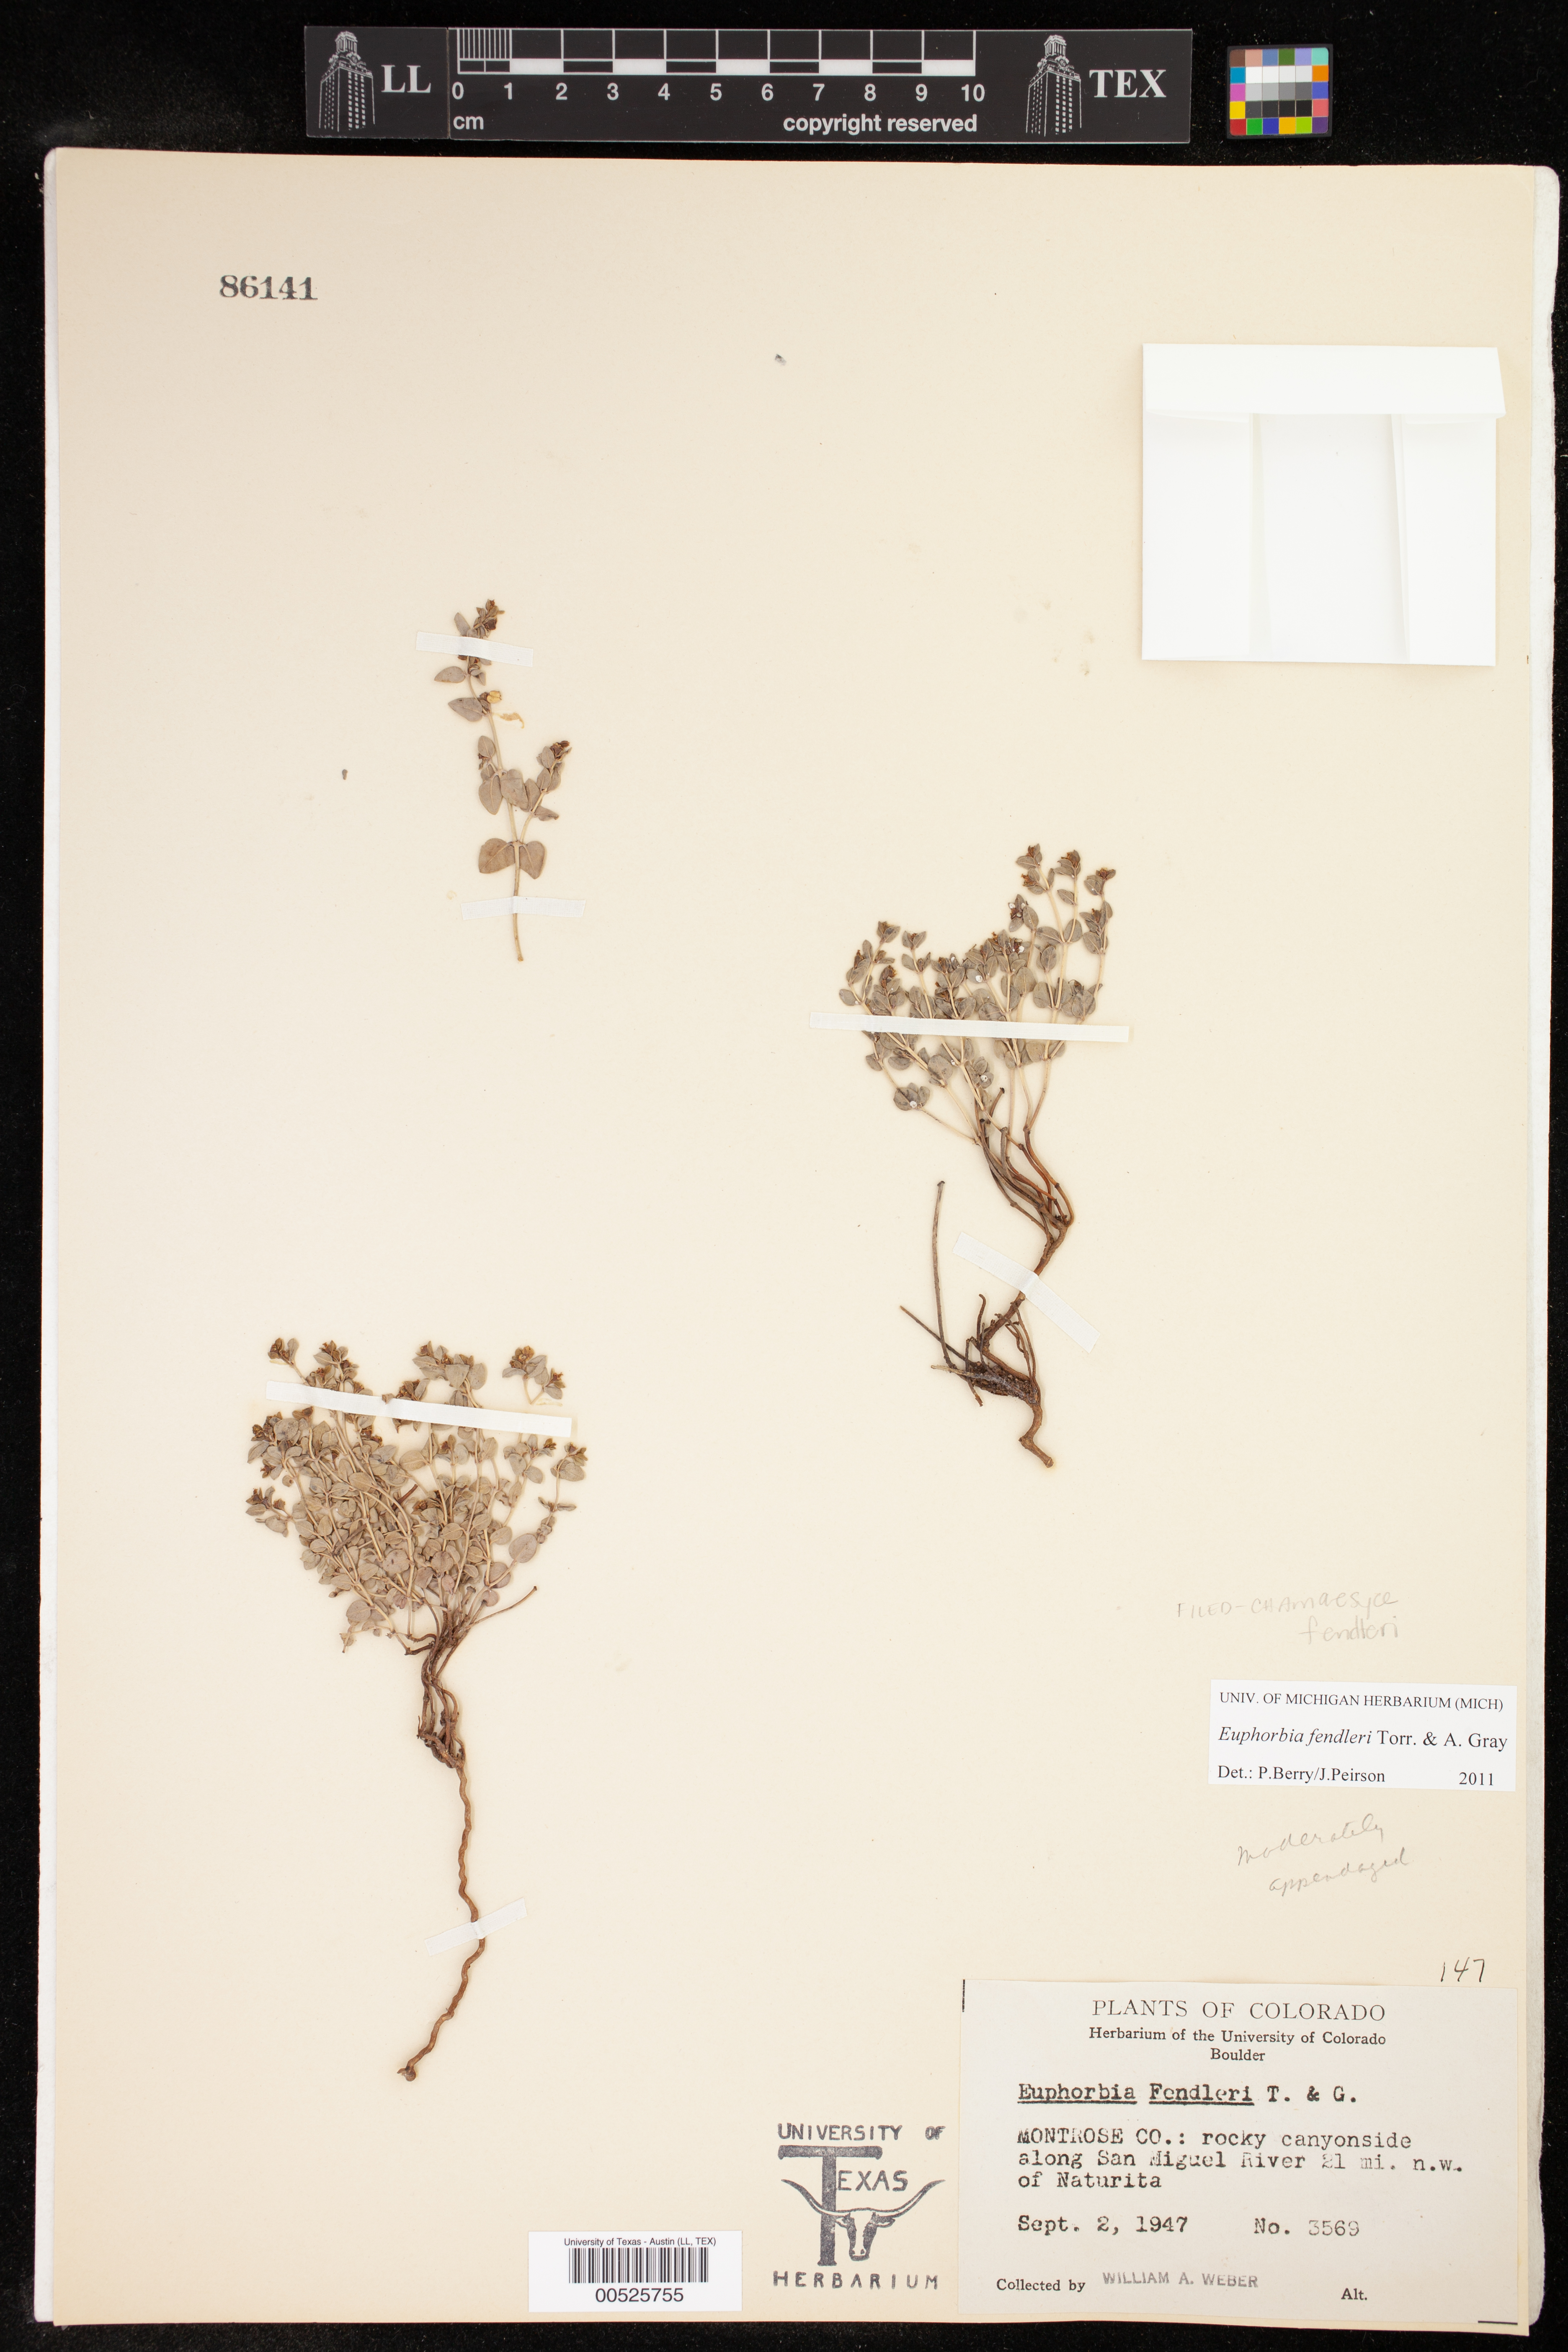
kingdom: Plantae
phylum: Tracheophyta
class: Magnoliopsida
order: Malpighiales
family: Euphorbiaceae
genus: Euphorbia
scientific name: Euphorbia fendleri
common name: Fendler's euphorbia
